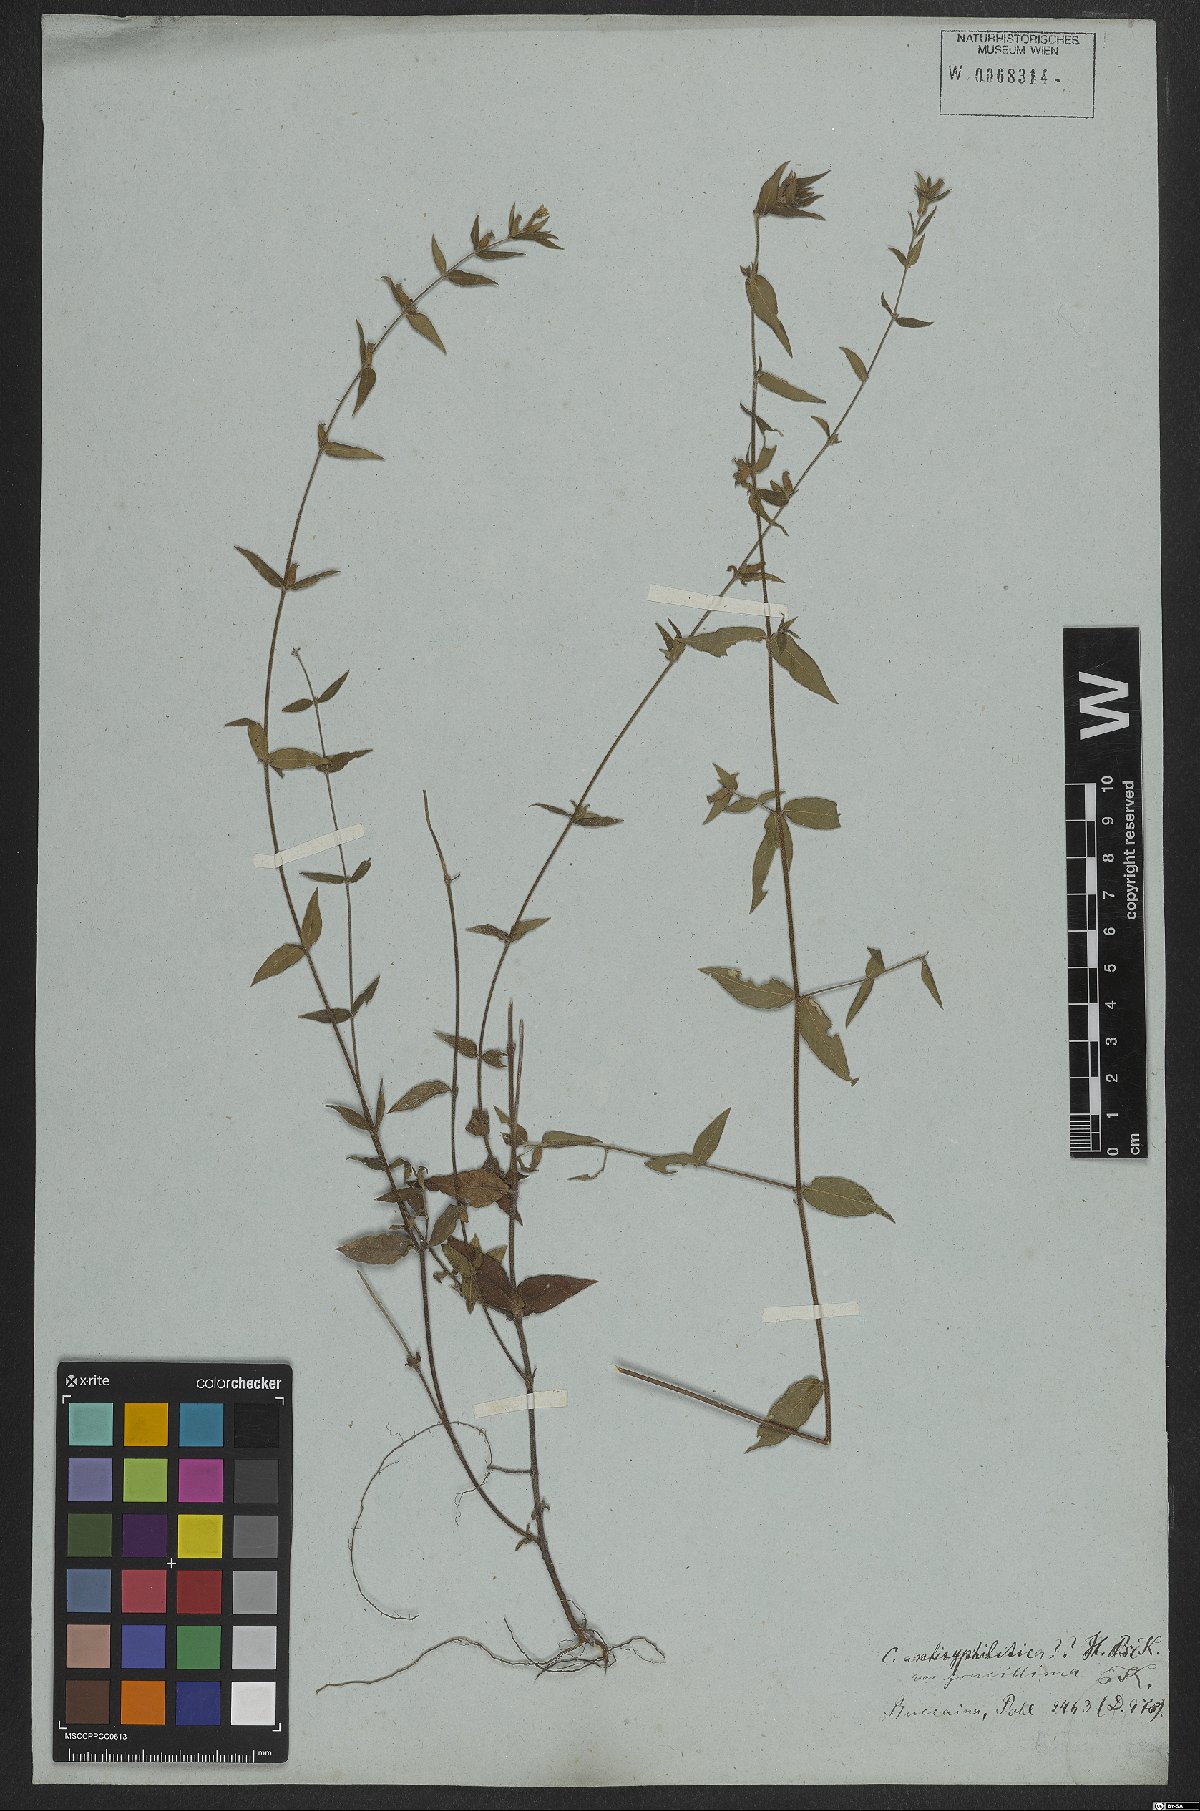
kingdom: Plantae
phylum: Tracheophyta
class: Magnoliopsida
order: Myrtales
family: Lythraceae
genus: Cuphea
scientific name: Cuphea antisyphilitica
